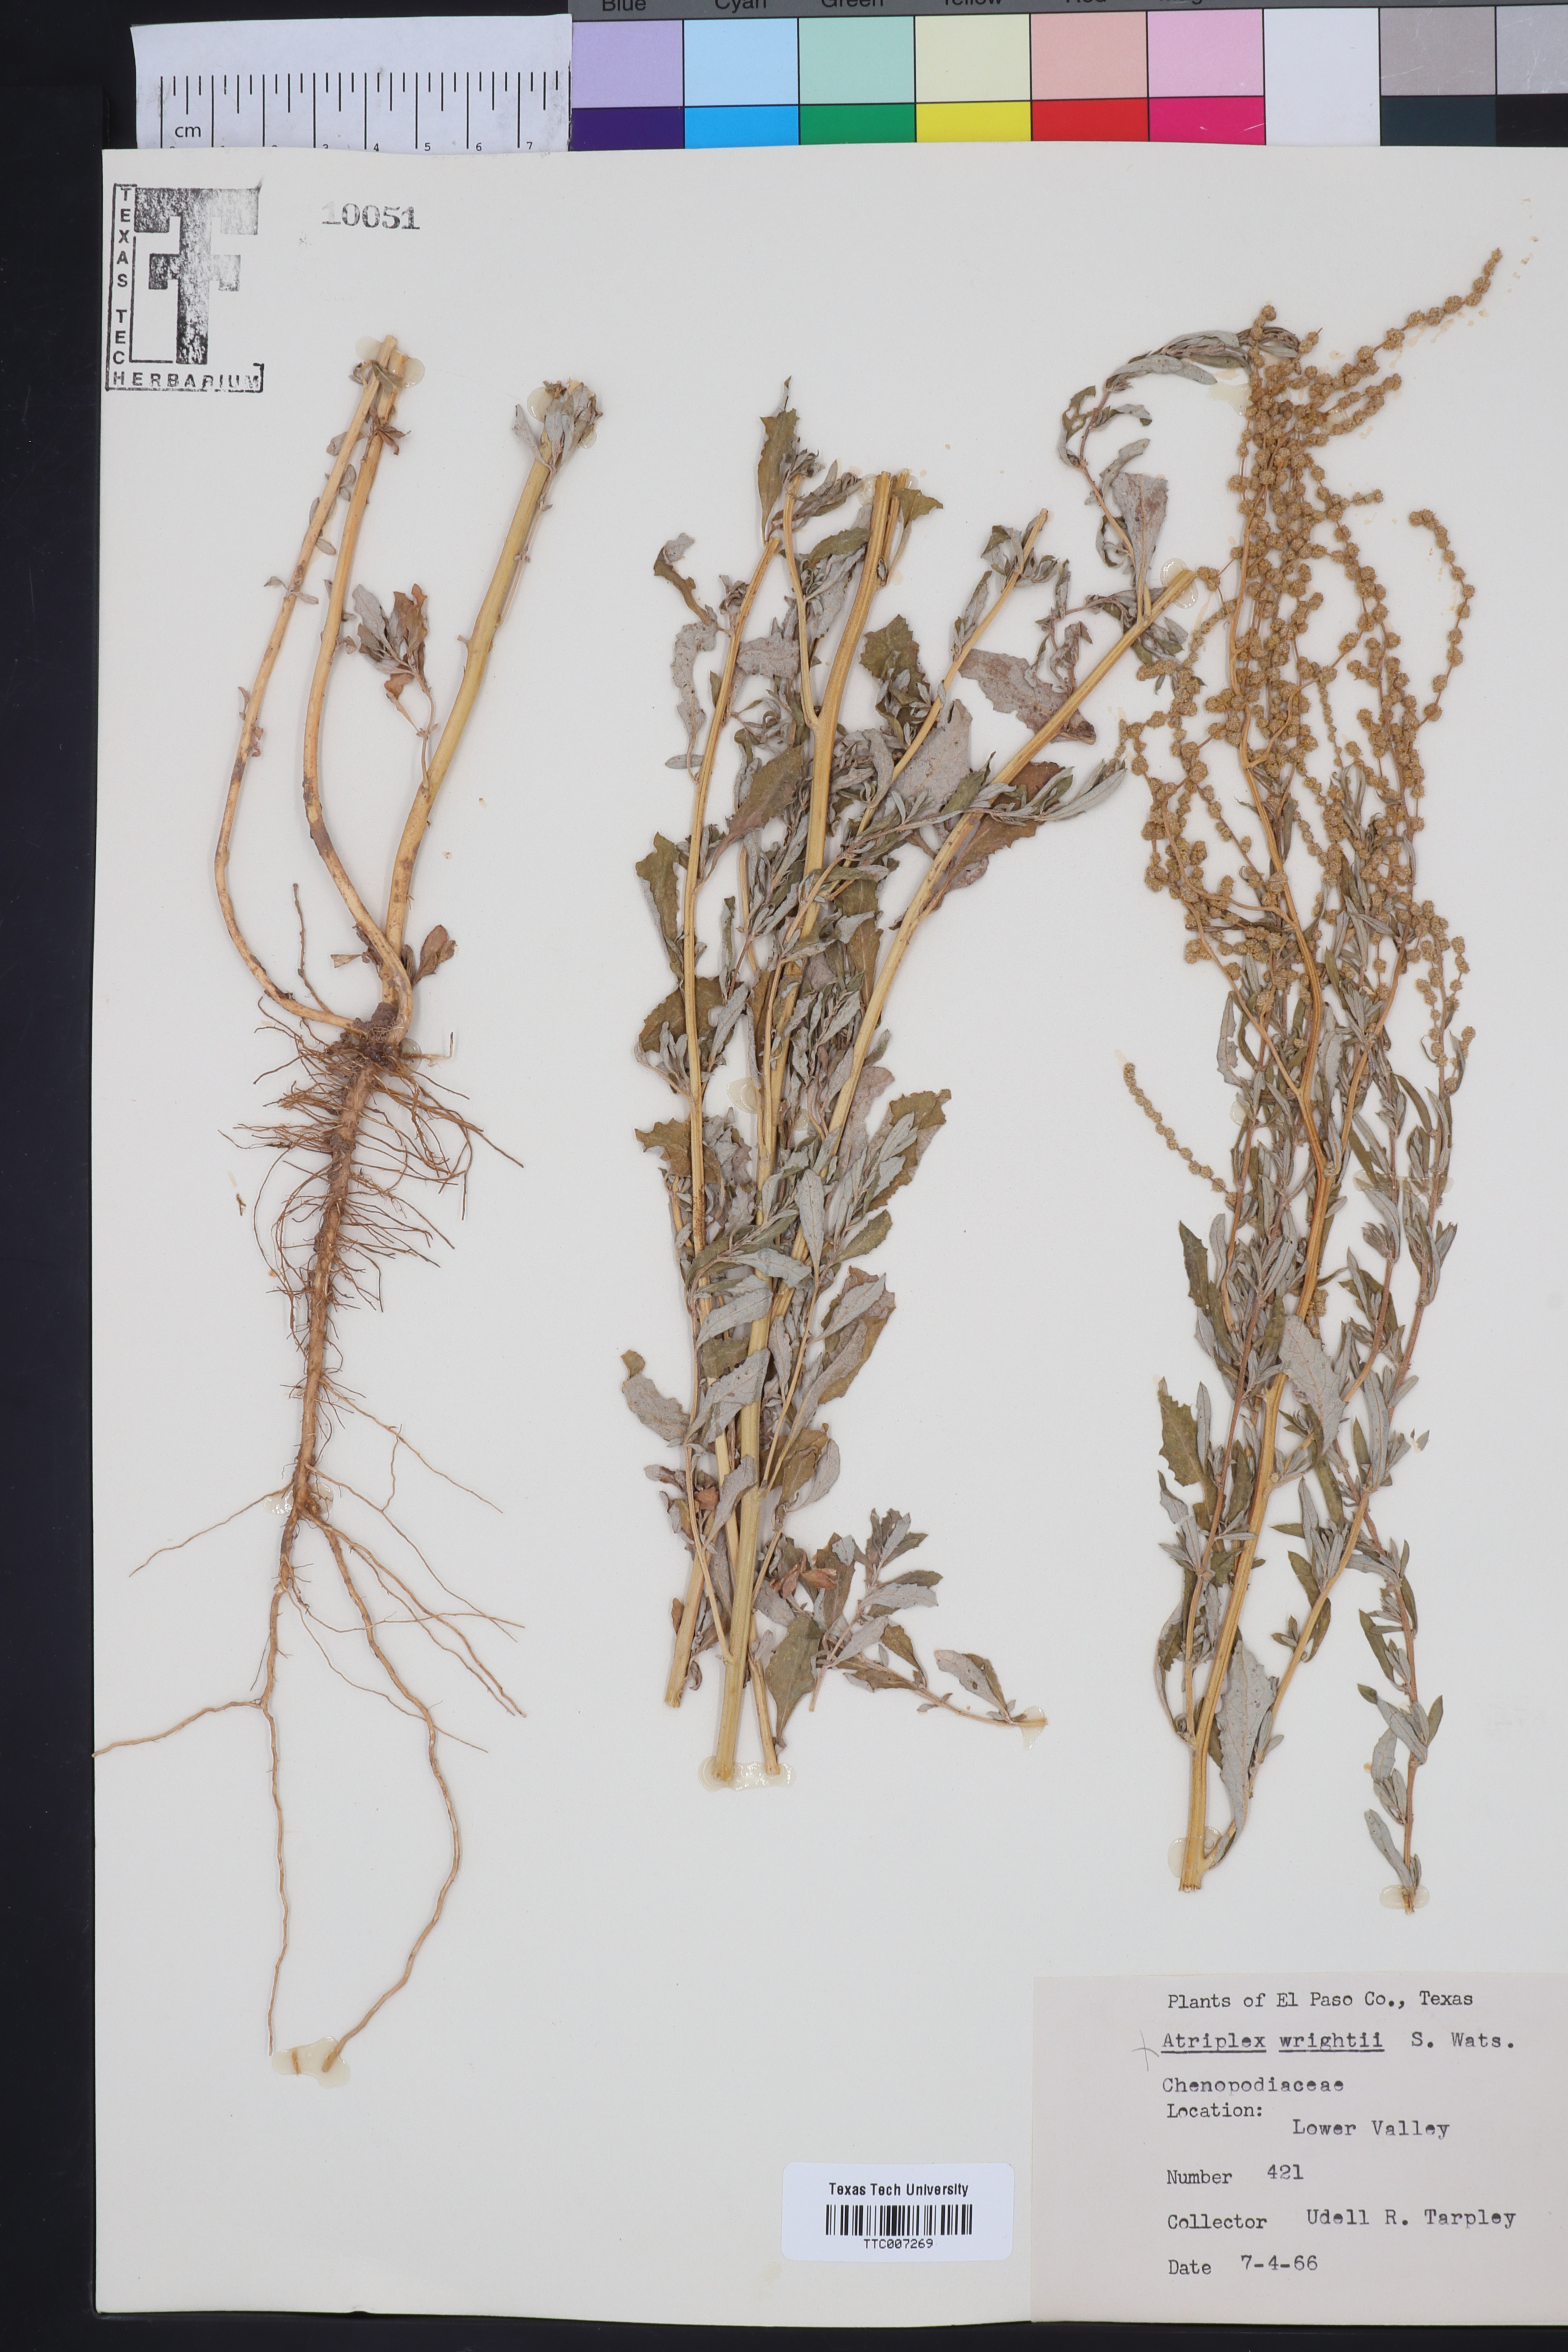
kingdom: Plantae
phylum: Tracheophyta
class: Magnoliopsida
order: Caryophyllales
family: Amaranthaceae
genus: Atriplex
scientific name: Atriplex wrightii
